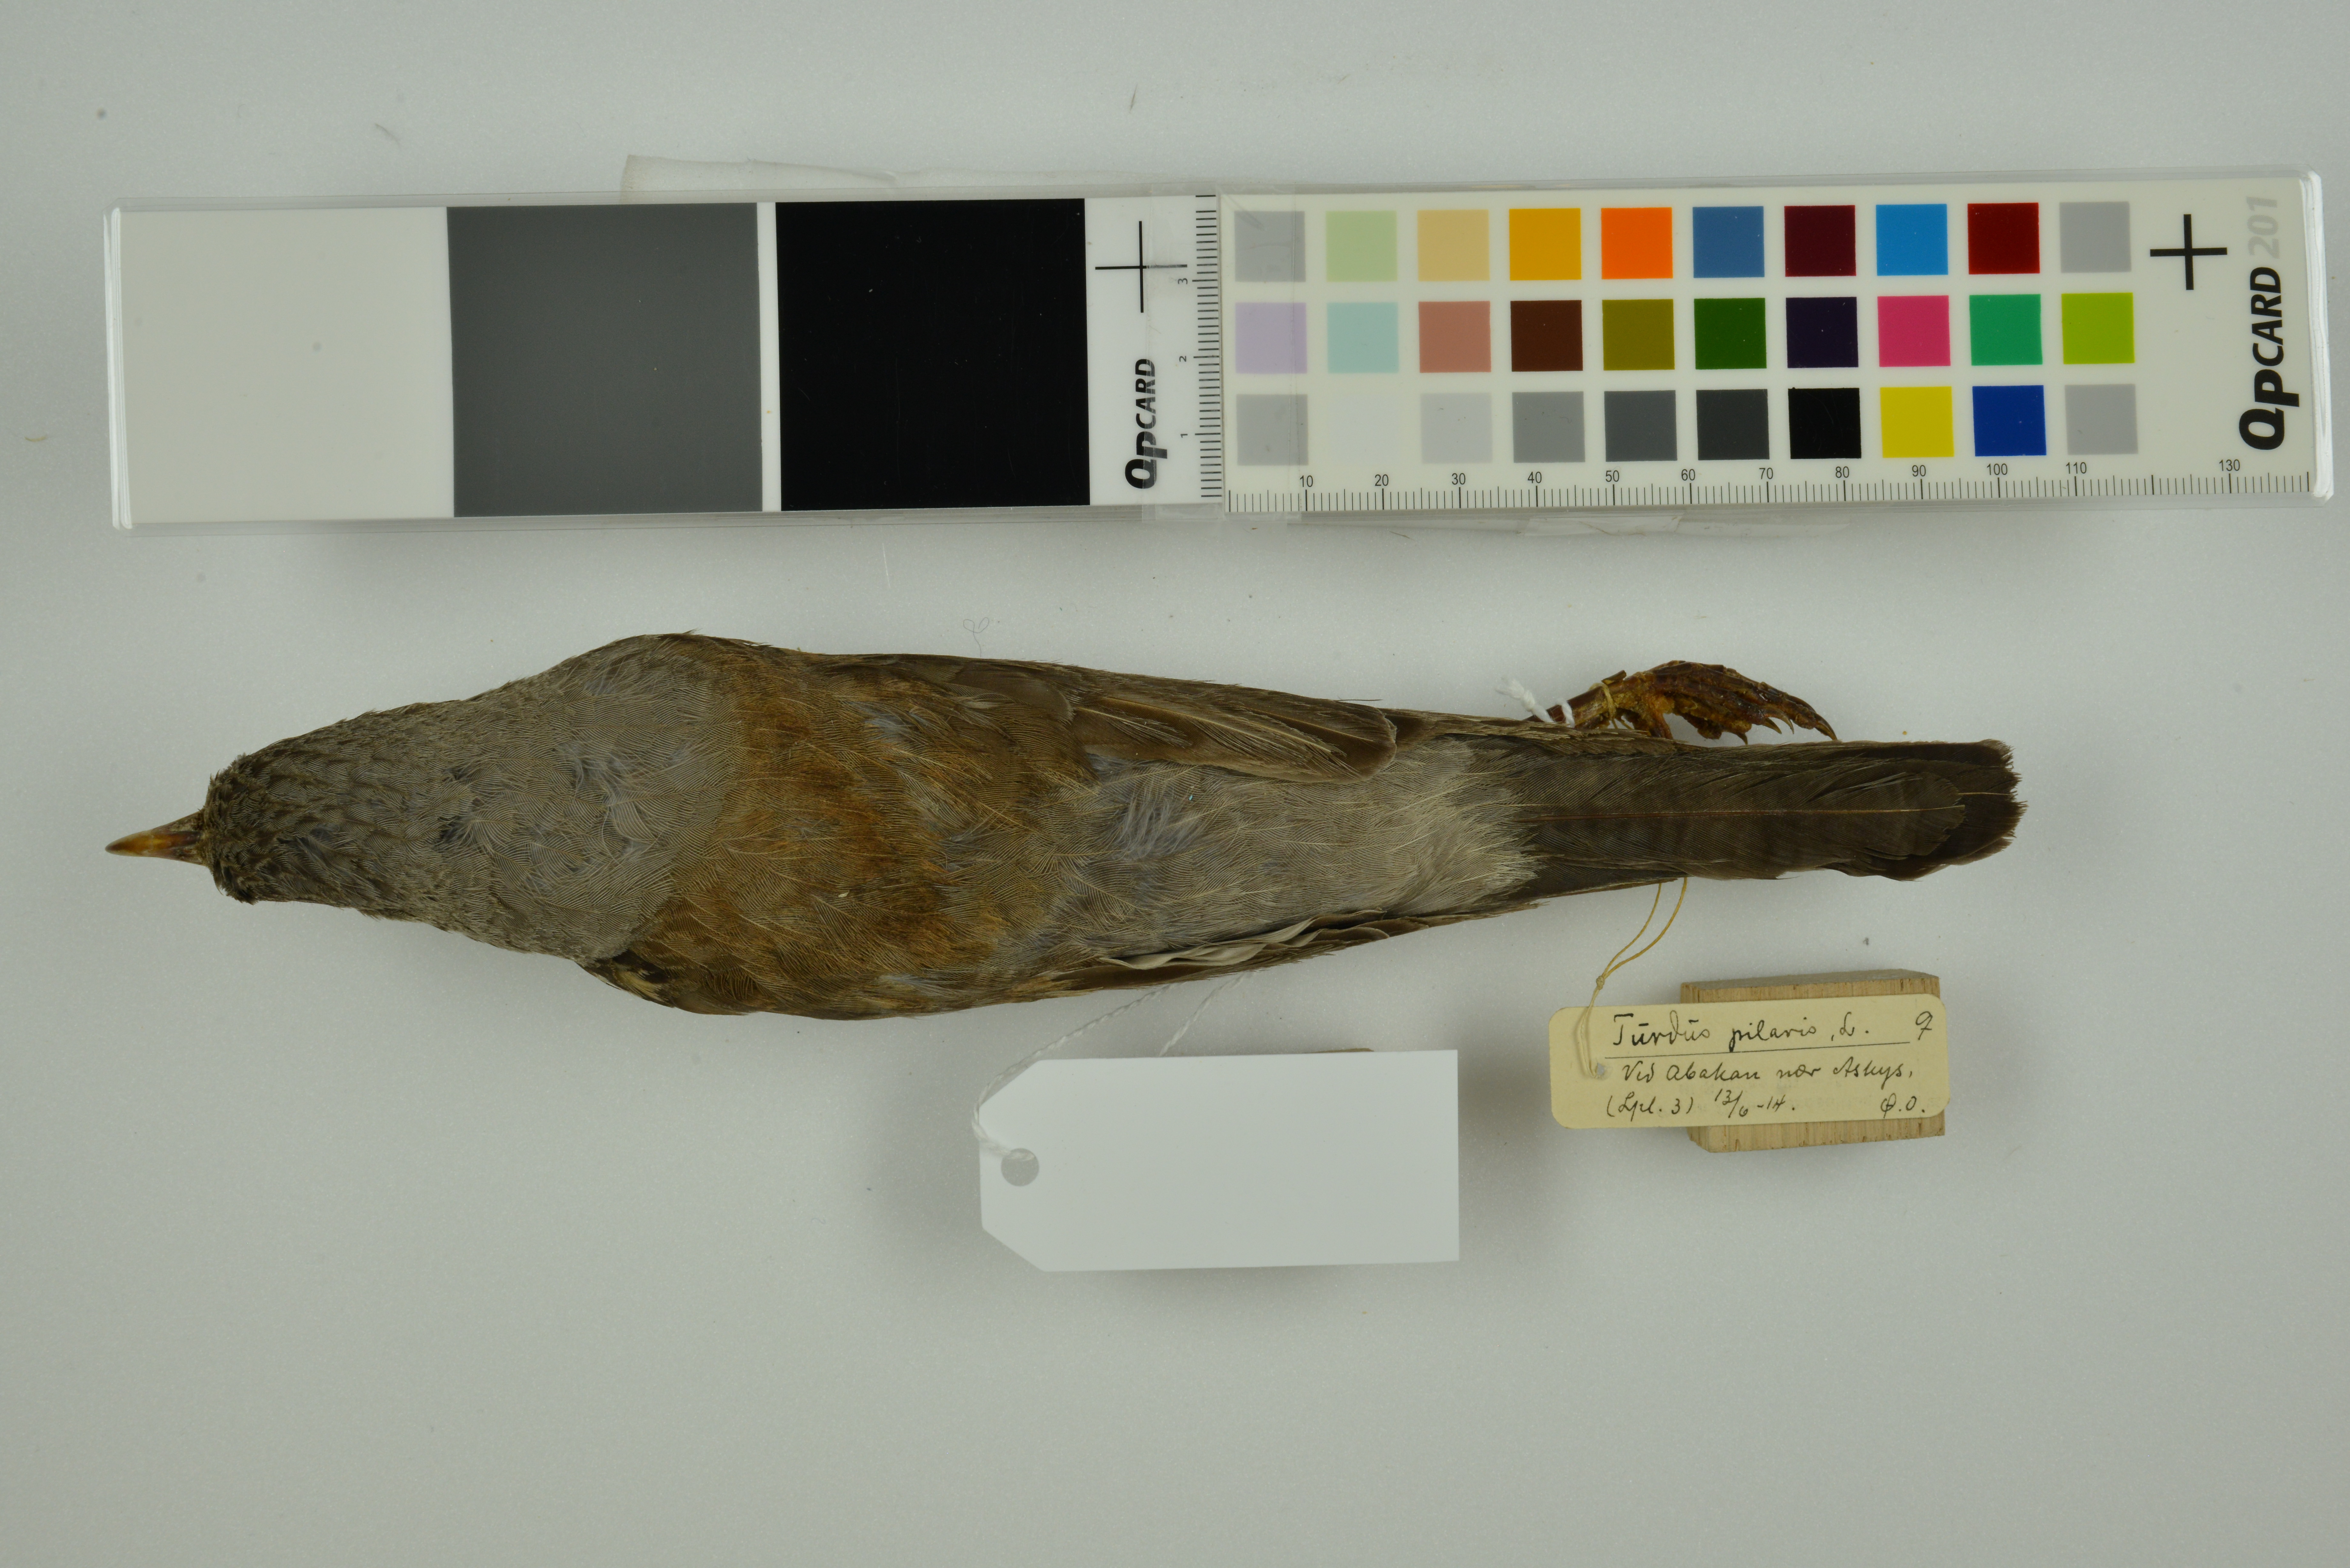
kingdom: Animalia
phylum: Chordata
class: Aves
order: Passeriformes
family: Turdidae
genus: Turdus
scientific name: Turdus pilaris
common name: Fieldfare
